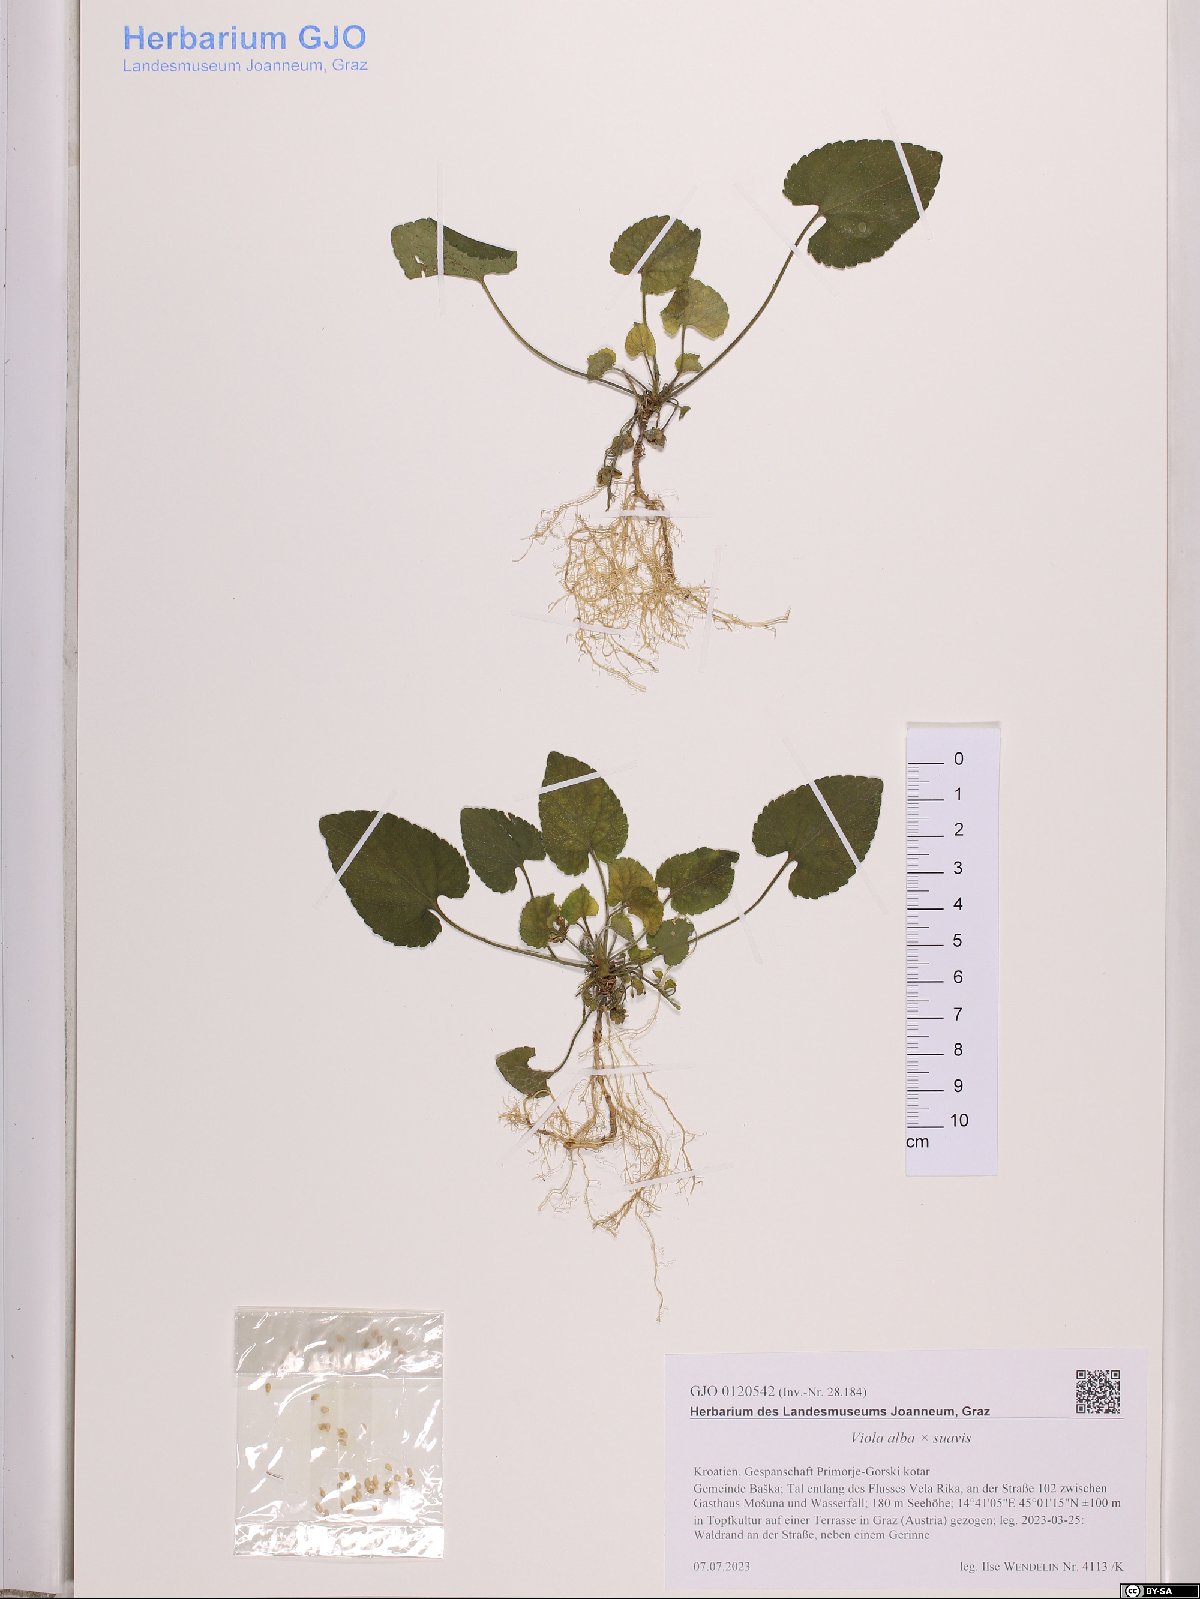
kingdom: Plantae
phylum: Tracheophyta
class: Magnoliopsida
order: Malpighiales
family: Violaceae
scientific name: Violaceae
